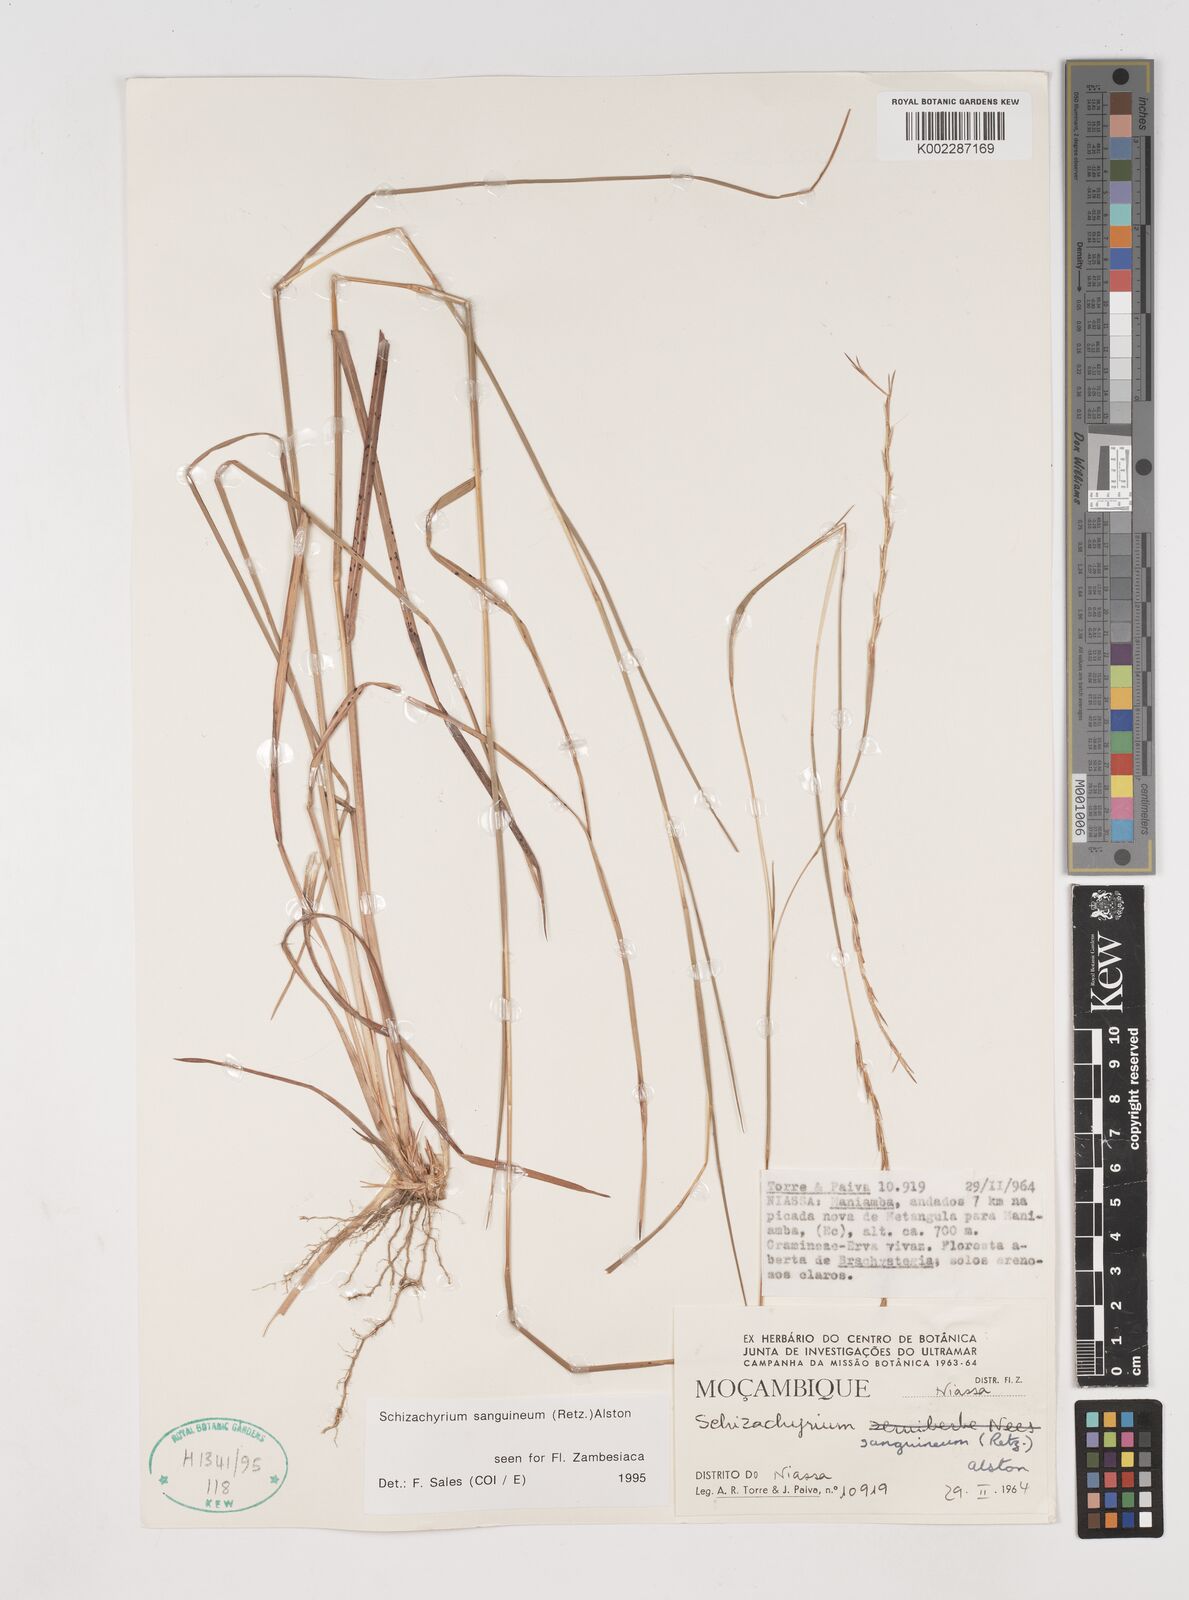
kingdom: Plantae
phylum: Tracheophyta
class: Liliopsida
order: Poales
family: Poaceae
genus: Schizachyrium
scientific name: Schizachyrium sanguineum
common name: Crimson bluestem
